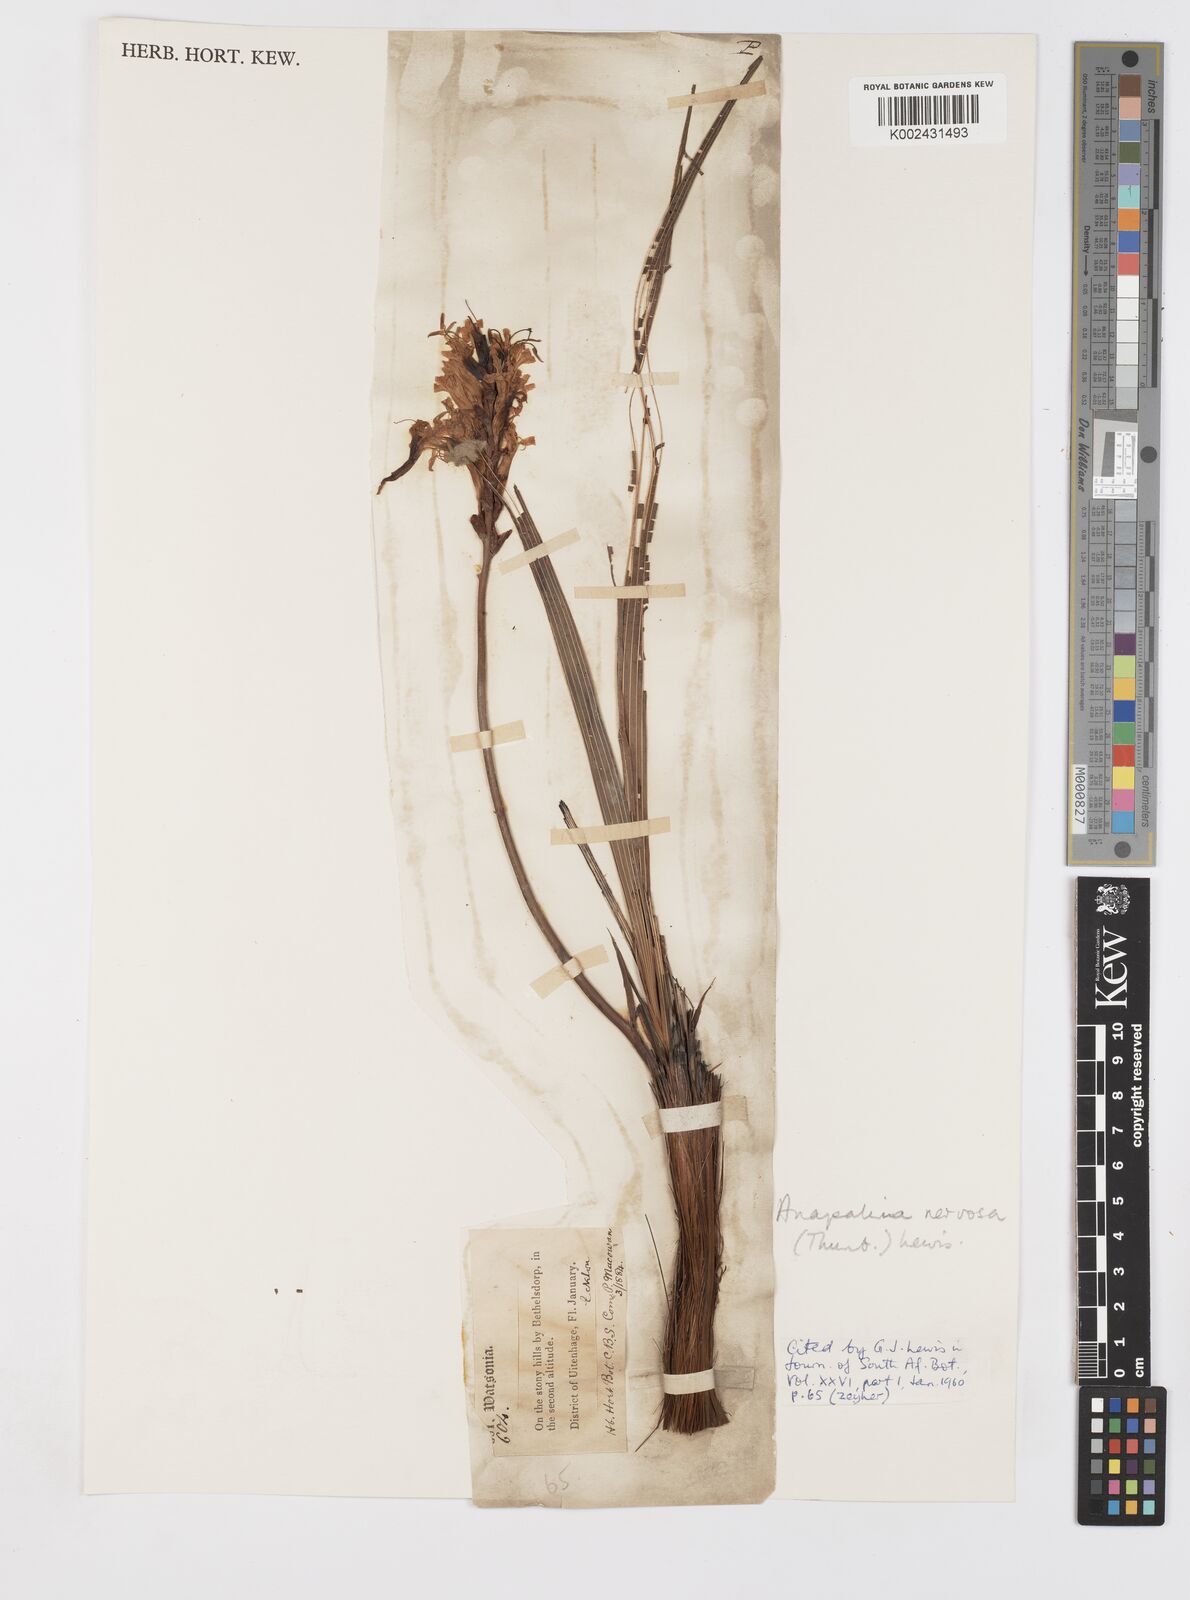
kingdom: Plantae
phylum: Tracheophyta
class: Liliopsida
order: Asparagales
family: Iridaceae
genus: Tritoniopsis
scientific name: Tritoniopsis nervosa
